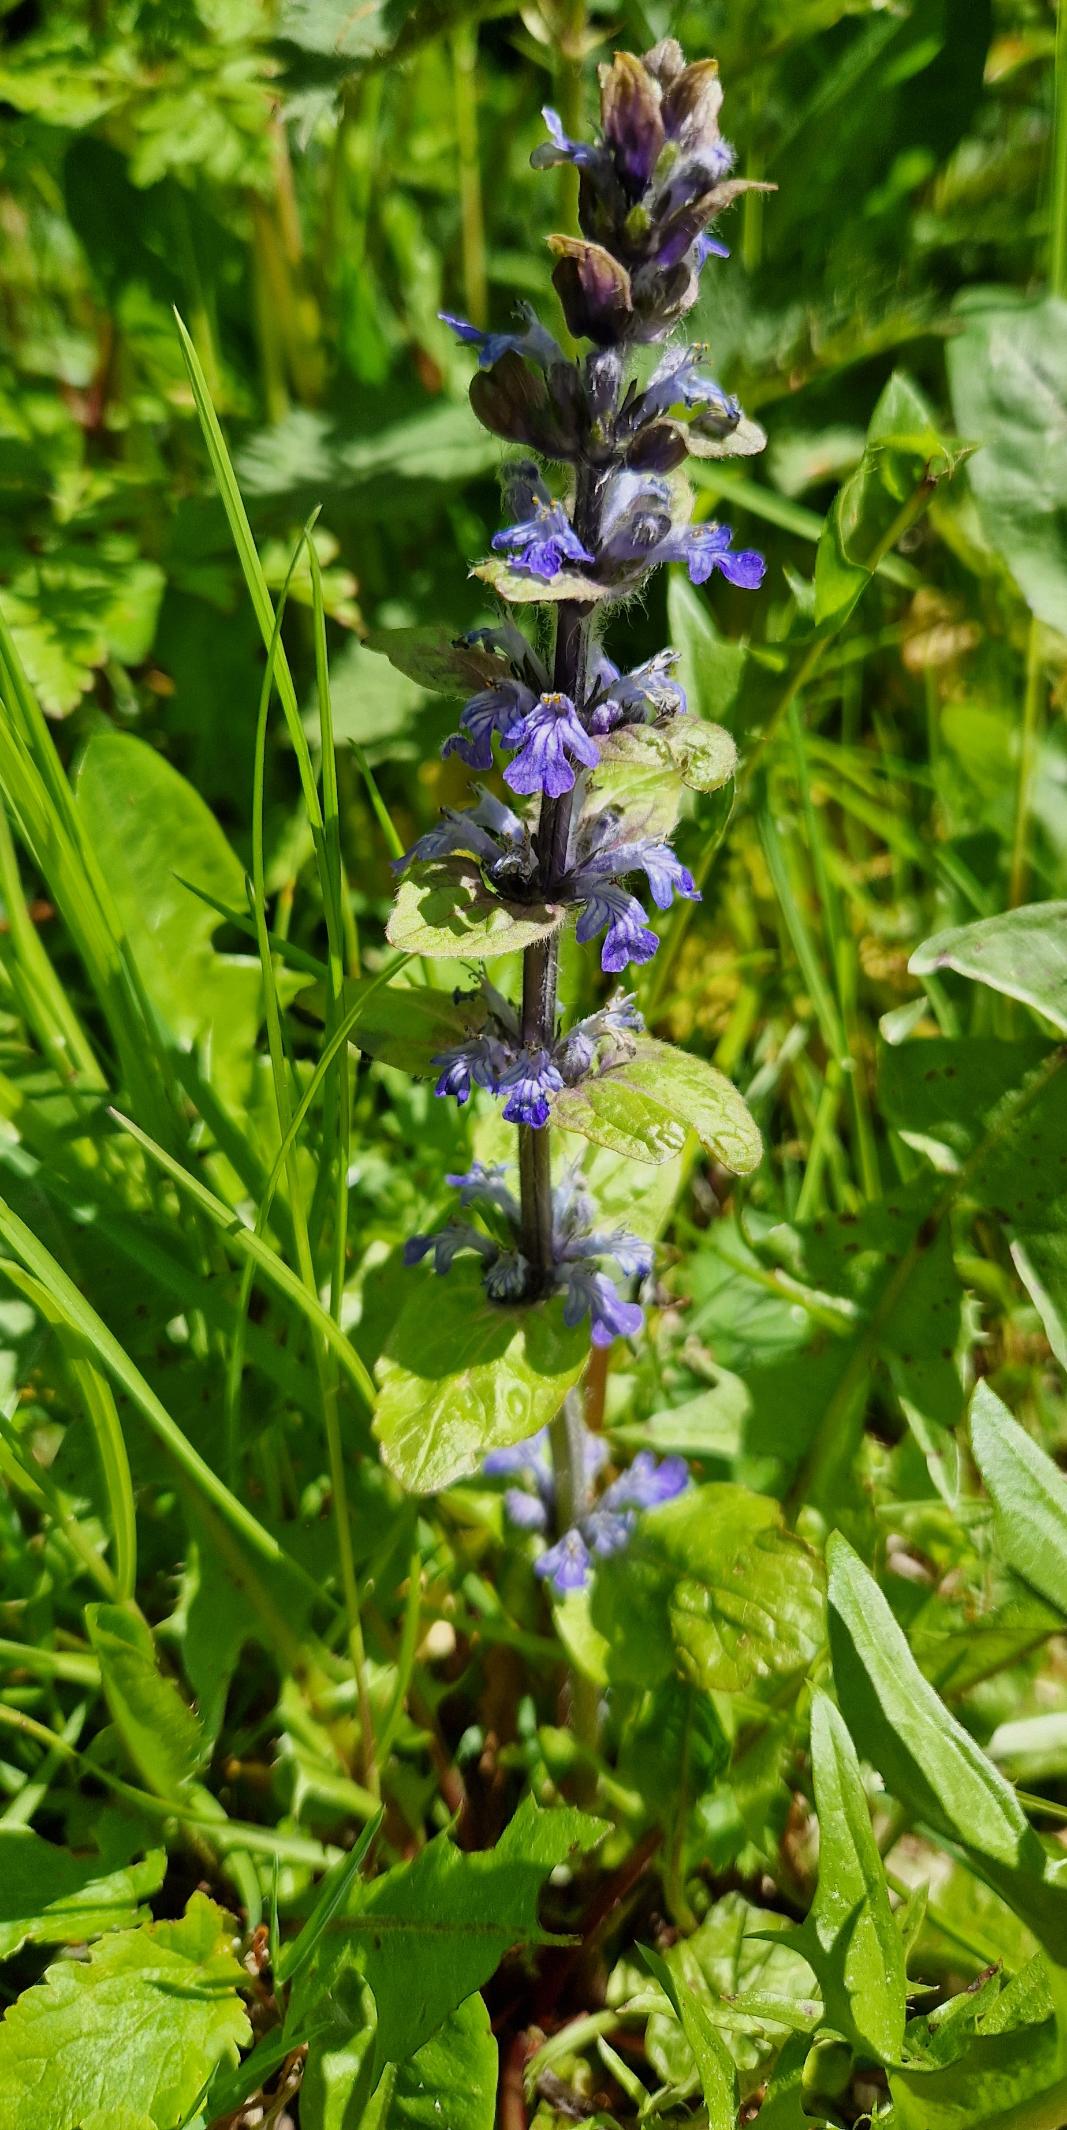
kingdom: Plantae
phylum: Tracheophyta
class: Magnoliopsida
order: Lamiales
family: Lamiaceae
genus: Ajuga
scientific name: Ajuga reptans
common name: Krybende læbeløs
